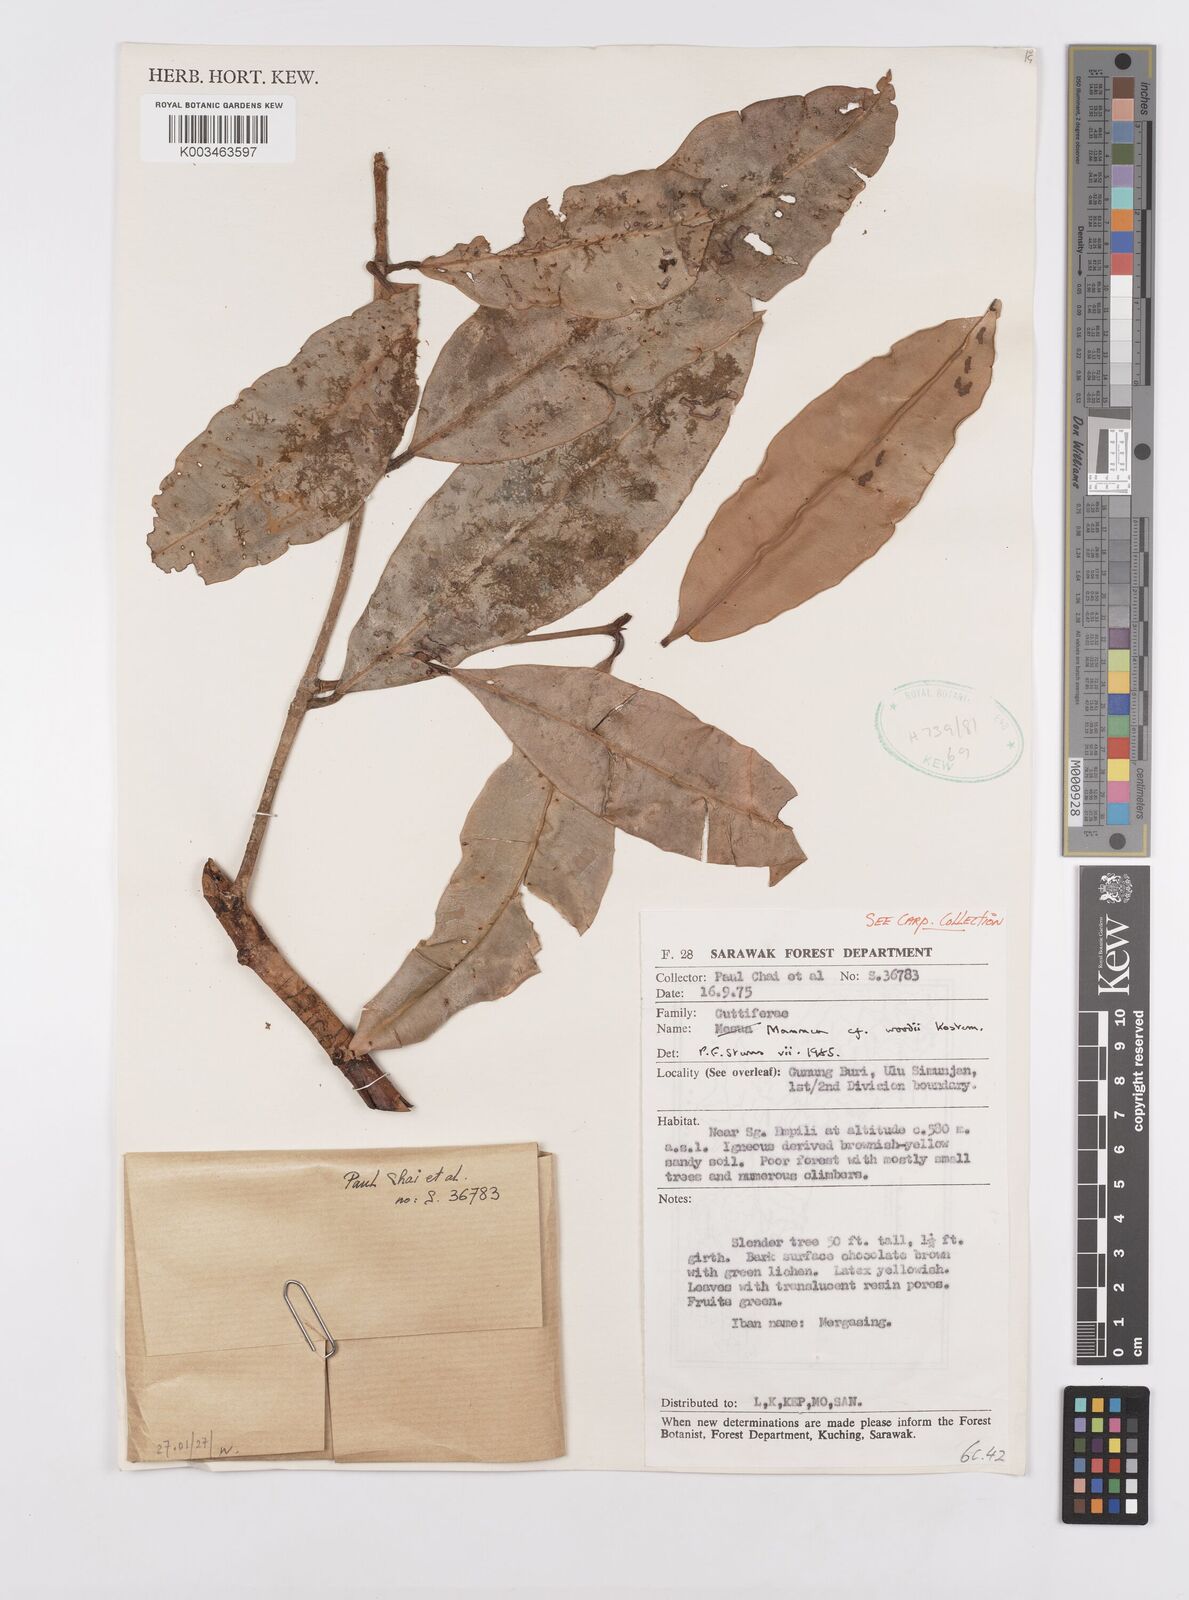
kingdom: Plantae
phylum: Tracheophyta
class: Magnoliopsida
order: Malpighiales
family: Calophyllaceae
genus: Mammea
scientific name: Mammea woodii
